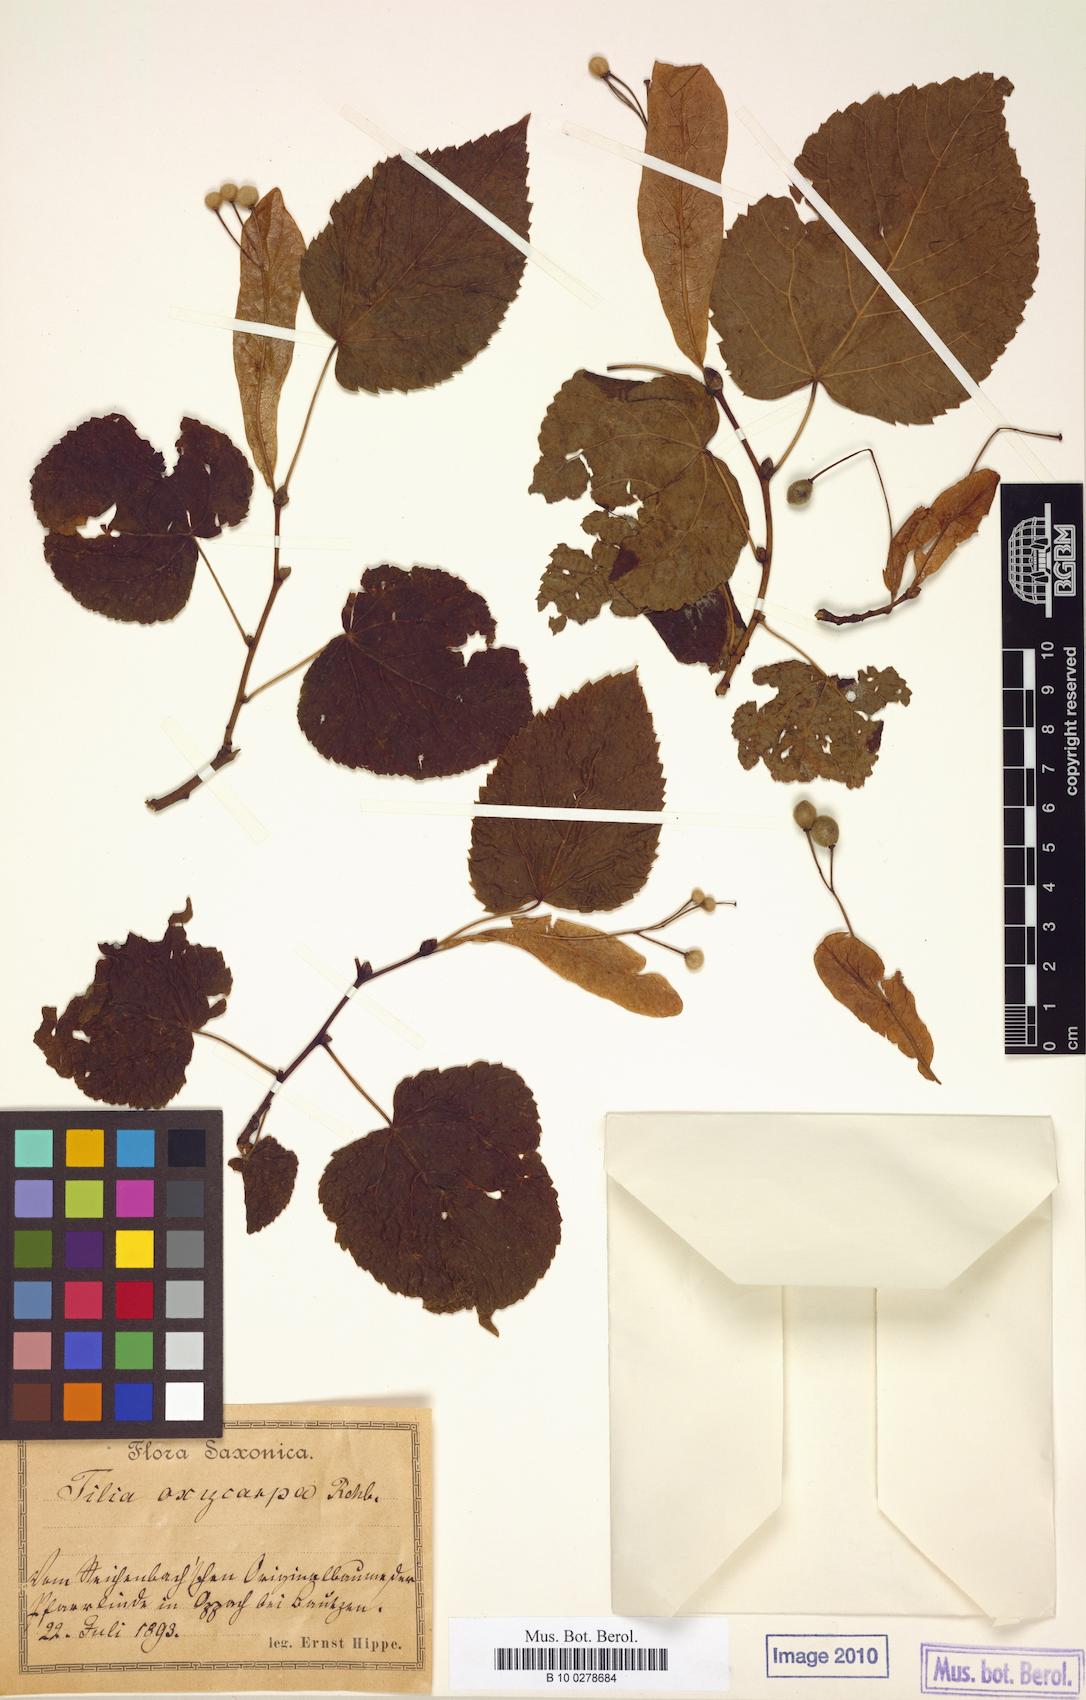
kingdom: Plantae
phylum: Tracheophyta
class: Magnoliopsida
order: Malvales
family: Malvaceae
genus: Tilia
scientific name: Tilia
